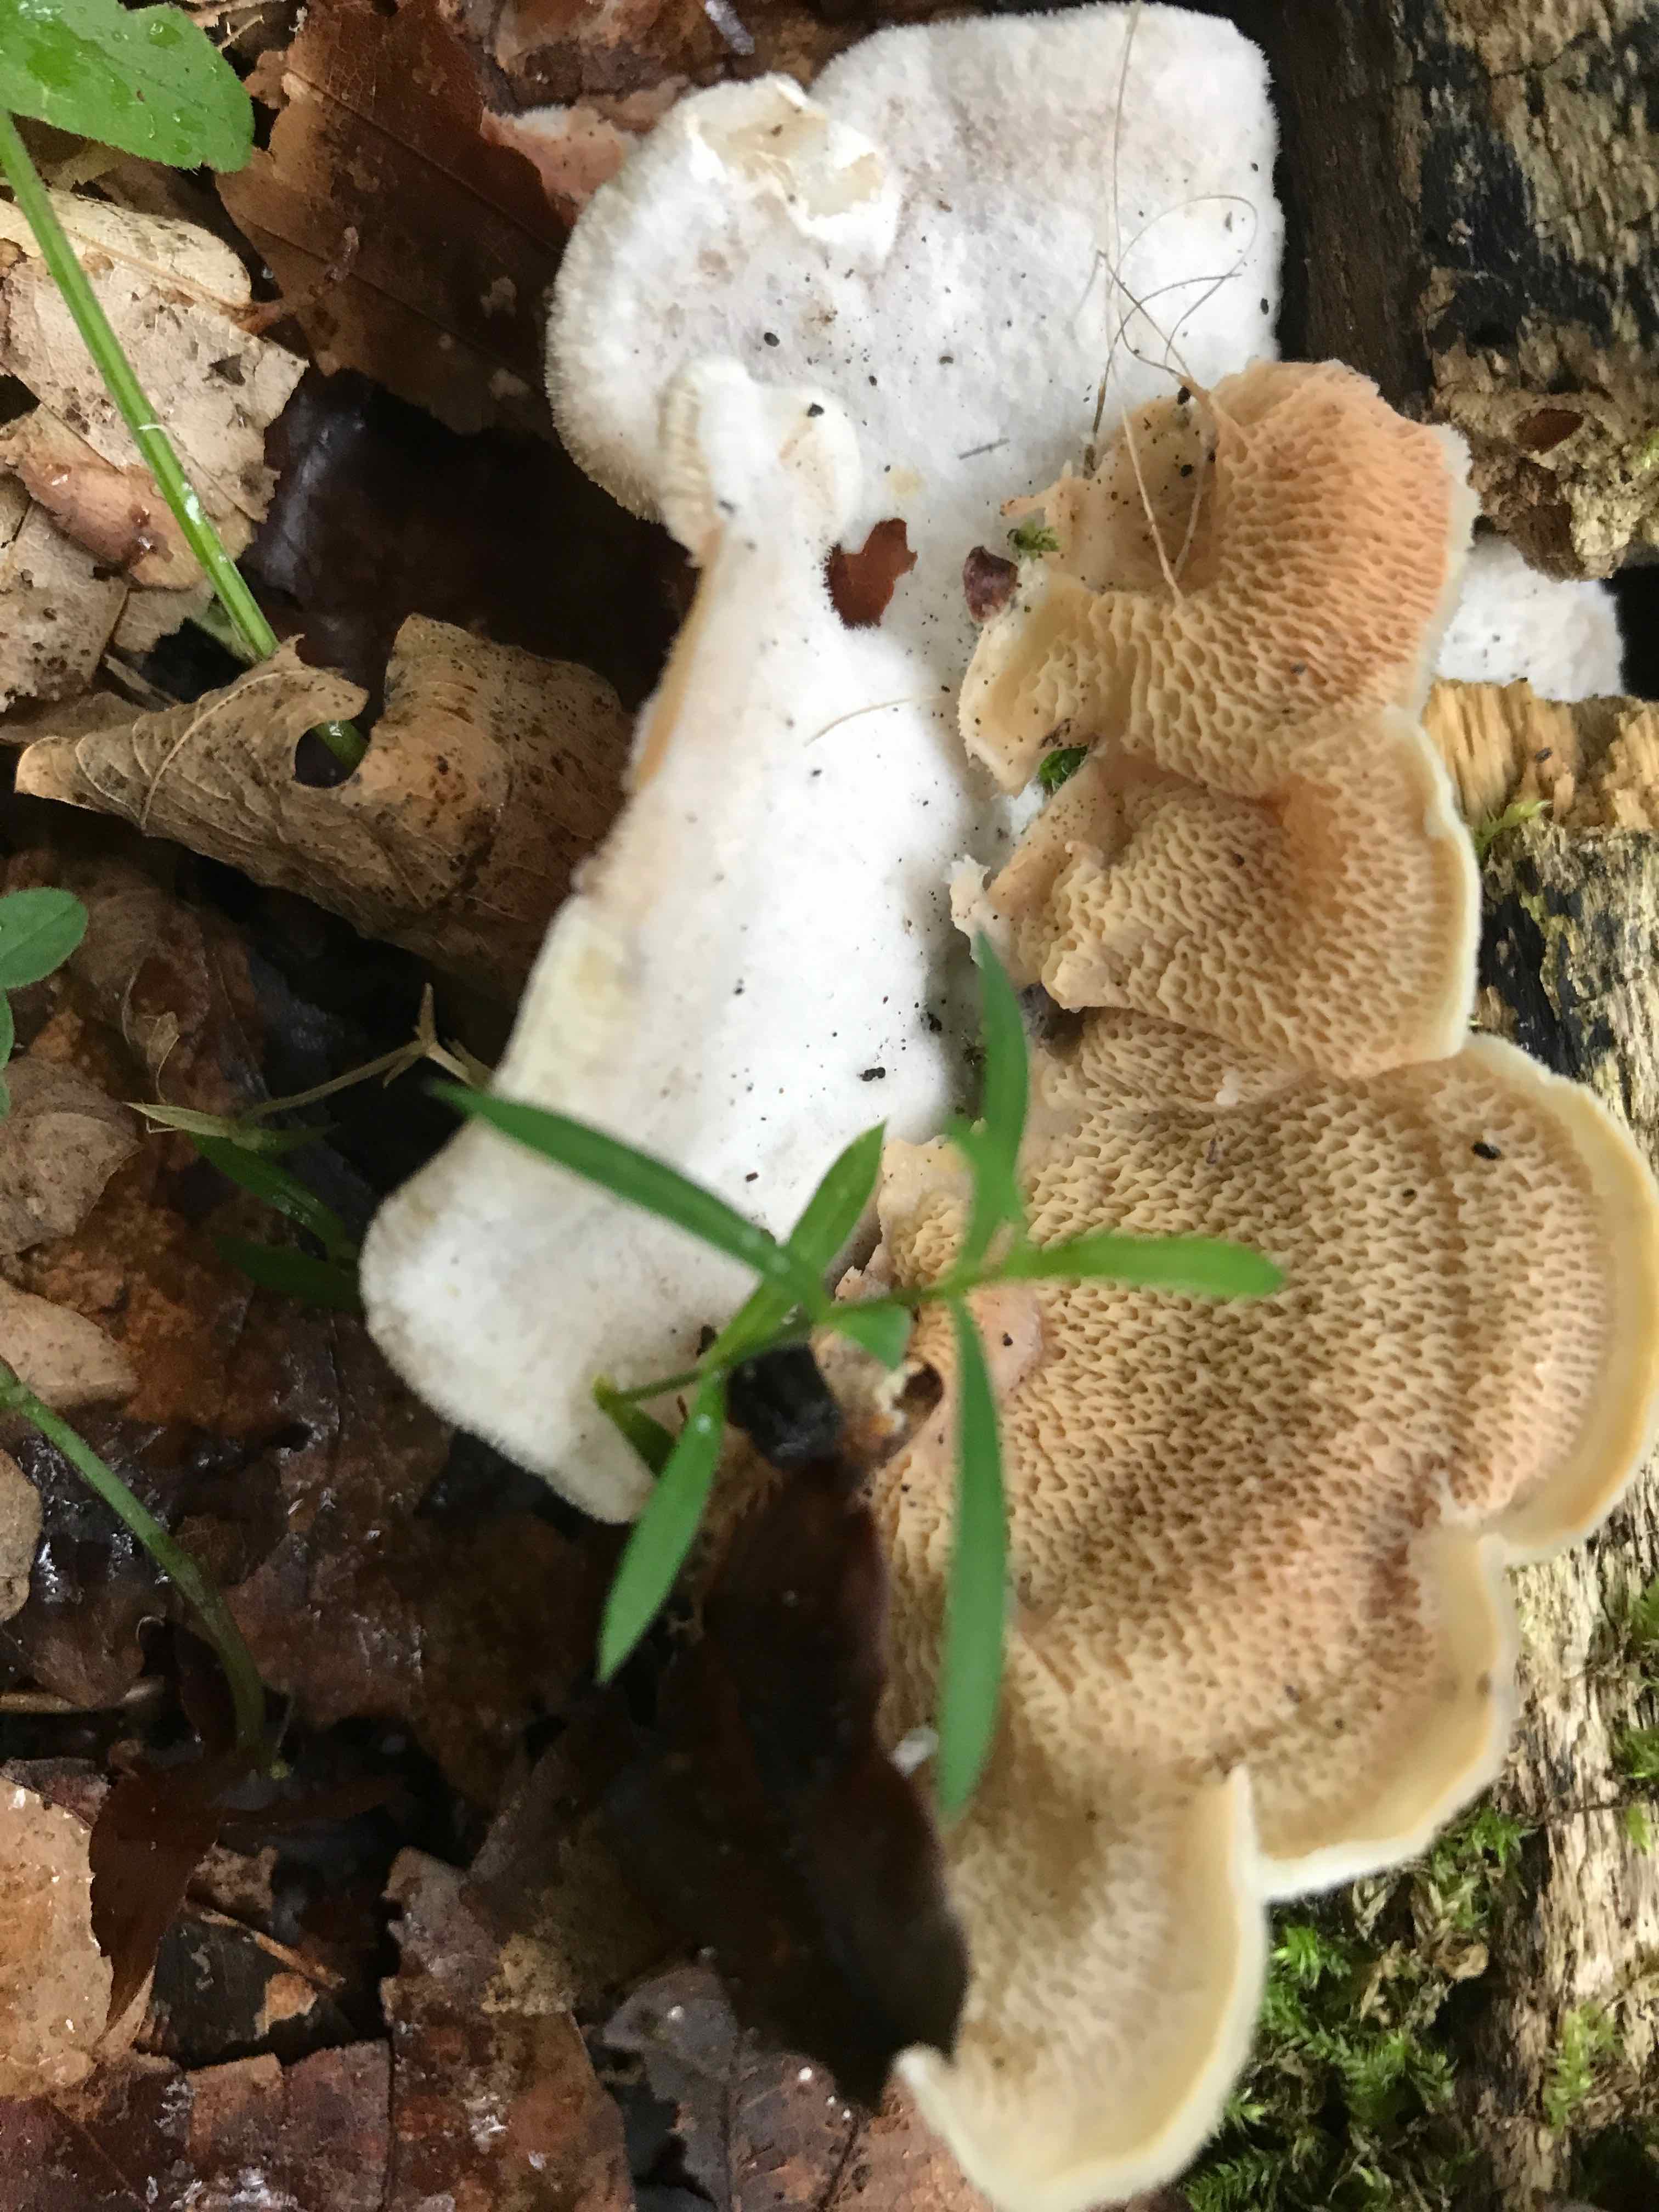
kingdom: Fungi
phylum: Basidiomycota
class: Agaricomycetes
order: Polyporales
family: Meruliaceae
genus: Phlebia
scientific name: Phlebia tremellosa
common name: bævrende åresvamp
